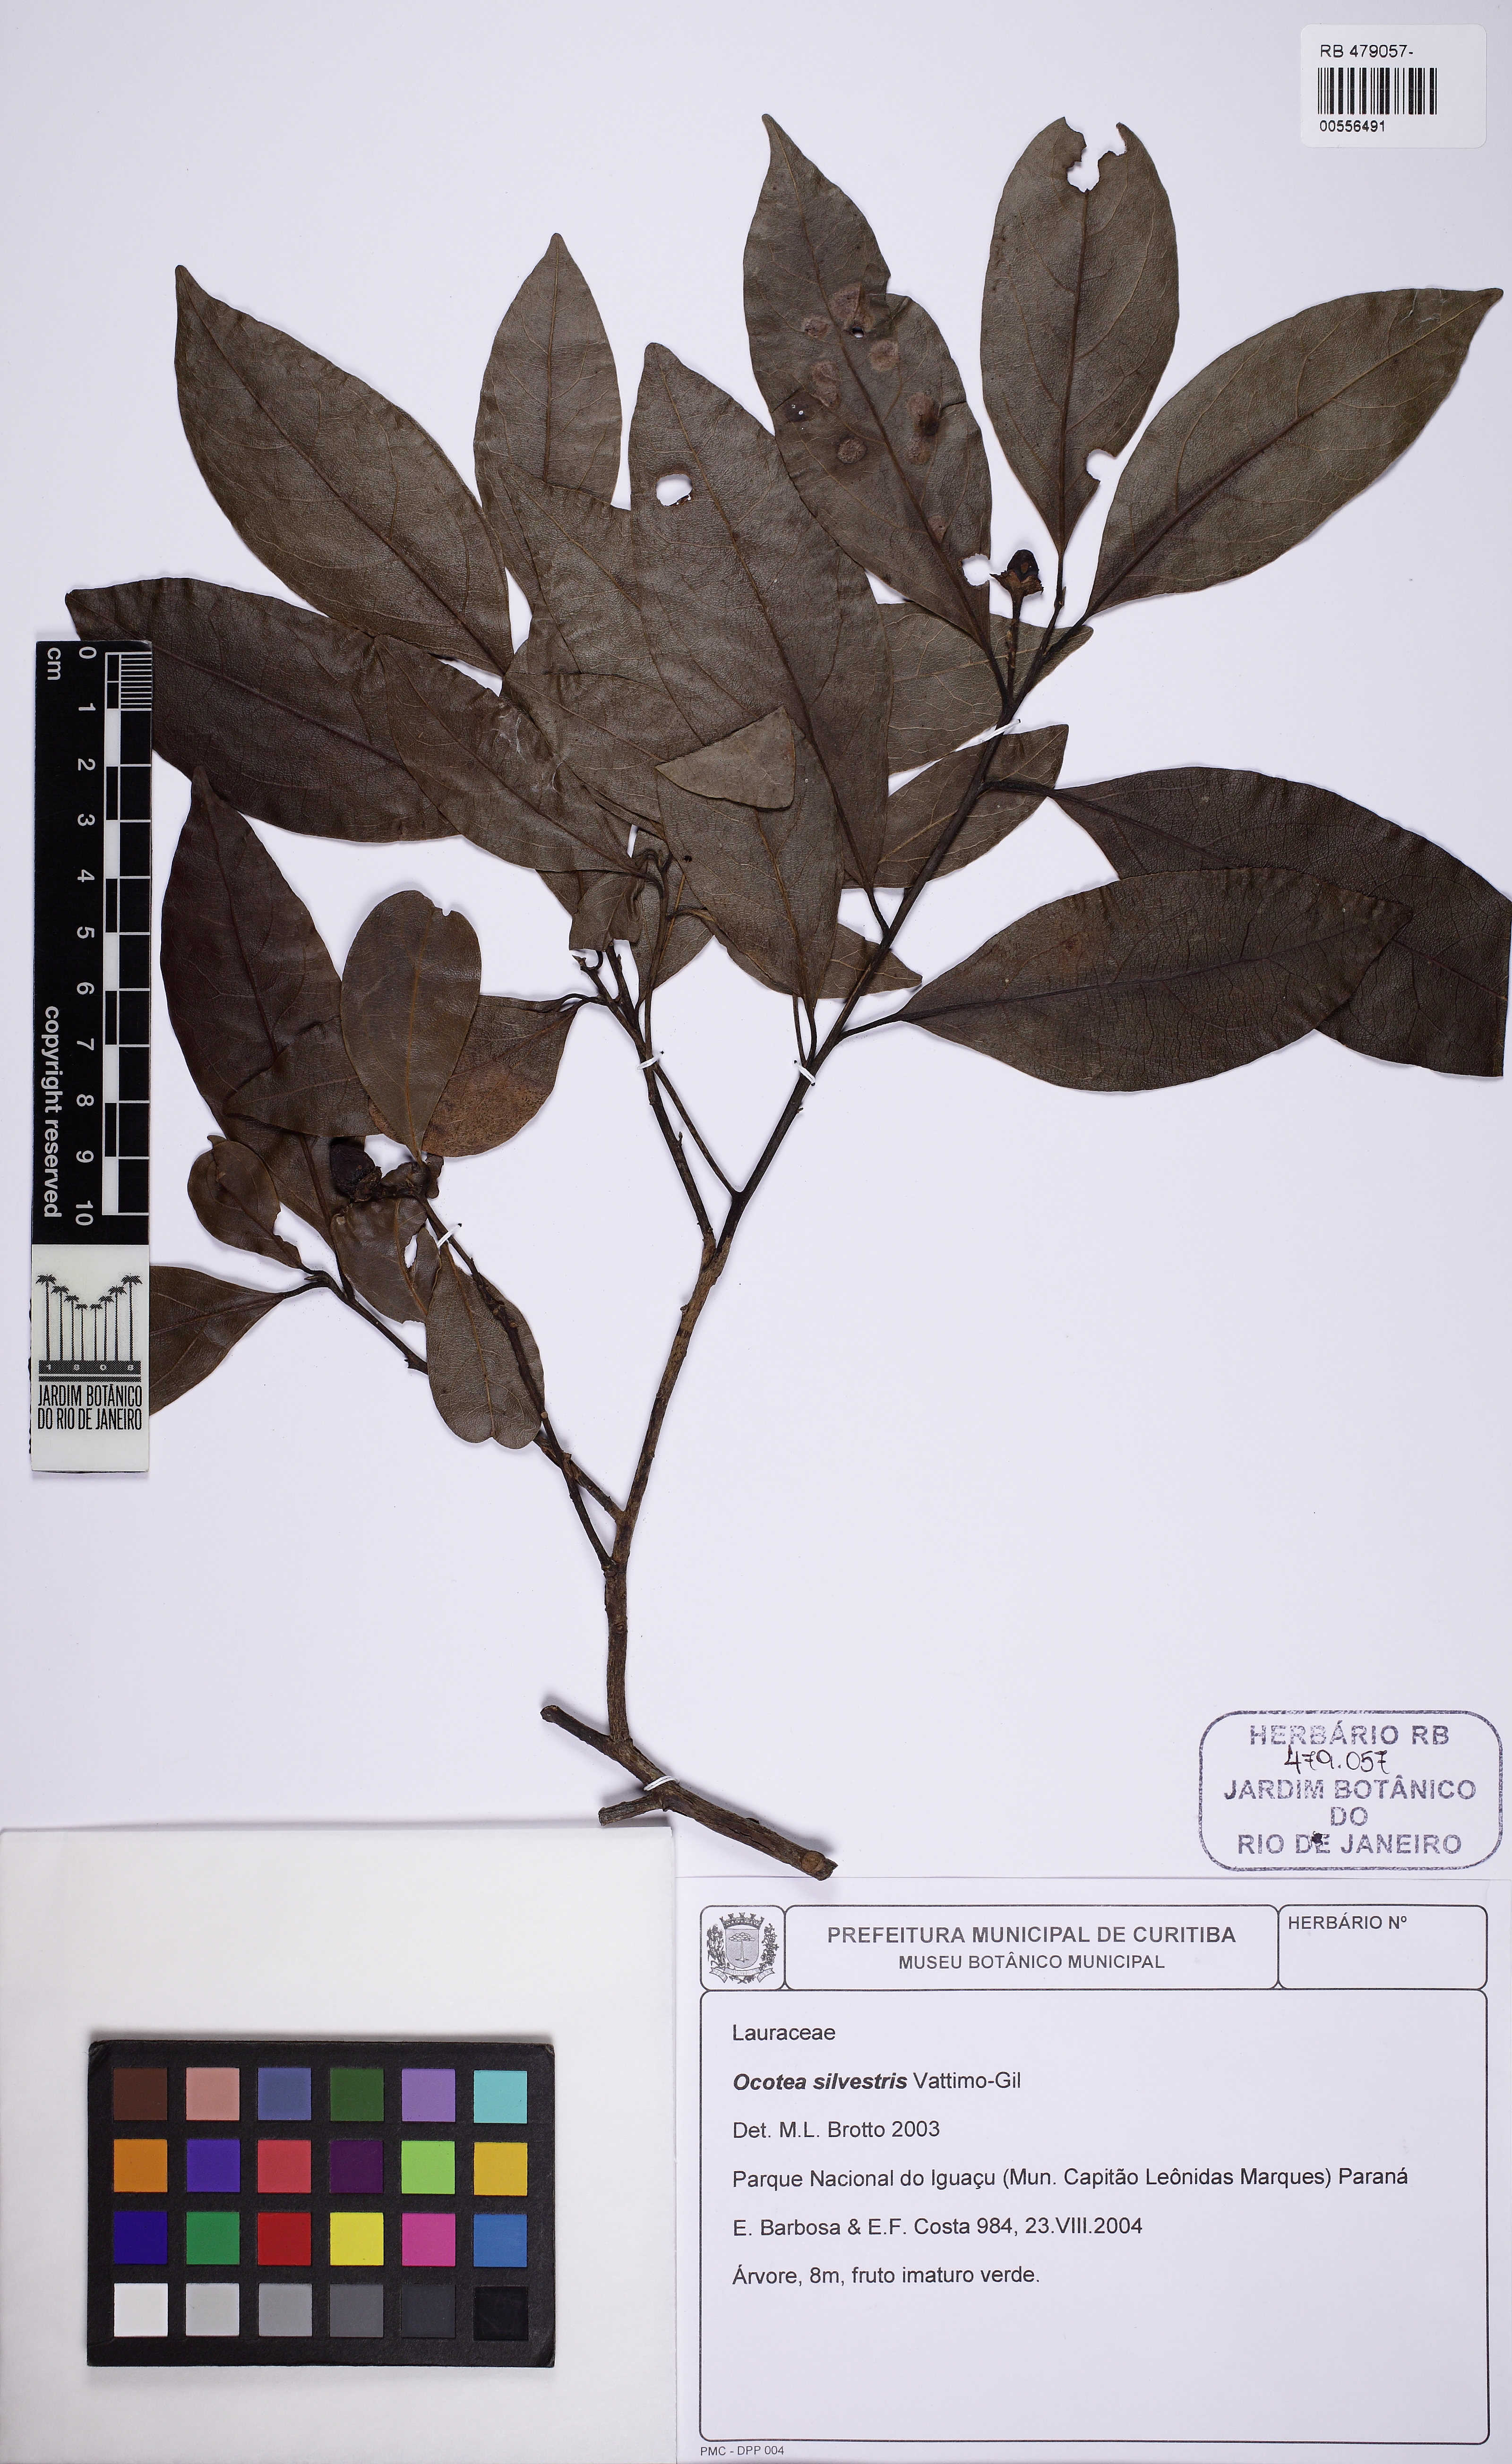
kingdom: Plantae
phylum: Tracheophyta
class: Magnoliopsida
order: Laurales
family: Lauraceae
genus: Ocotea
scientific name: Ocotea silvestris
